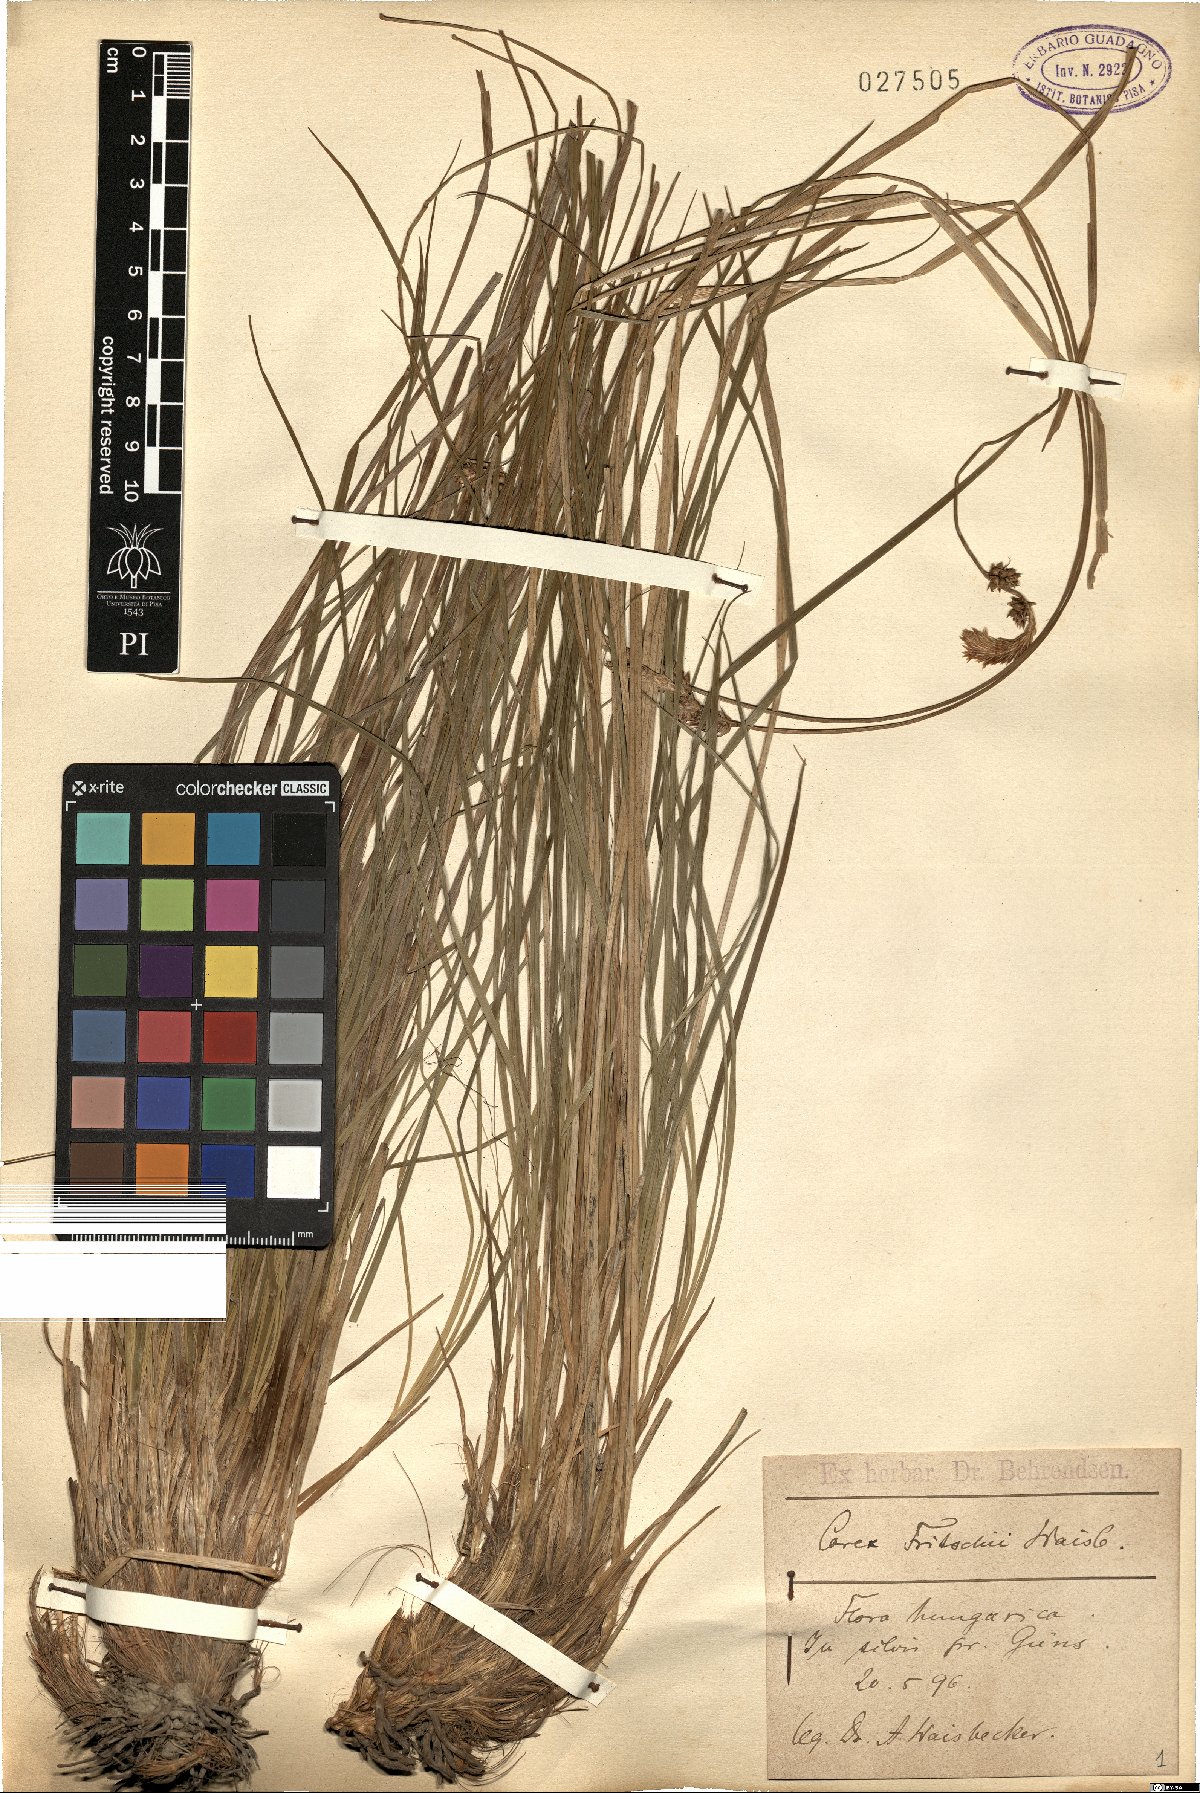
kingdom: Plantae
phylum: Tracheophyta
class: Liliopsida
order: Poales
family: Cyperaceae
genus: Carex
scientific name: Carex fritschii
